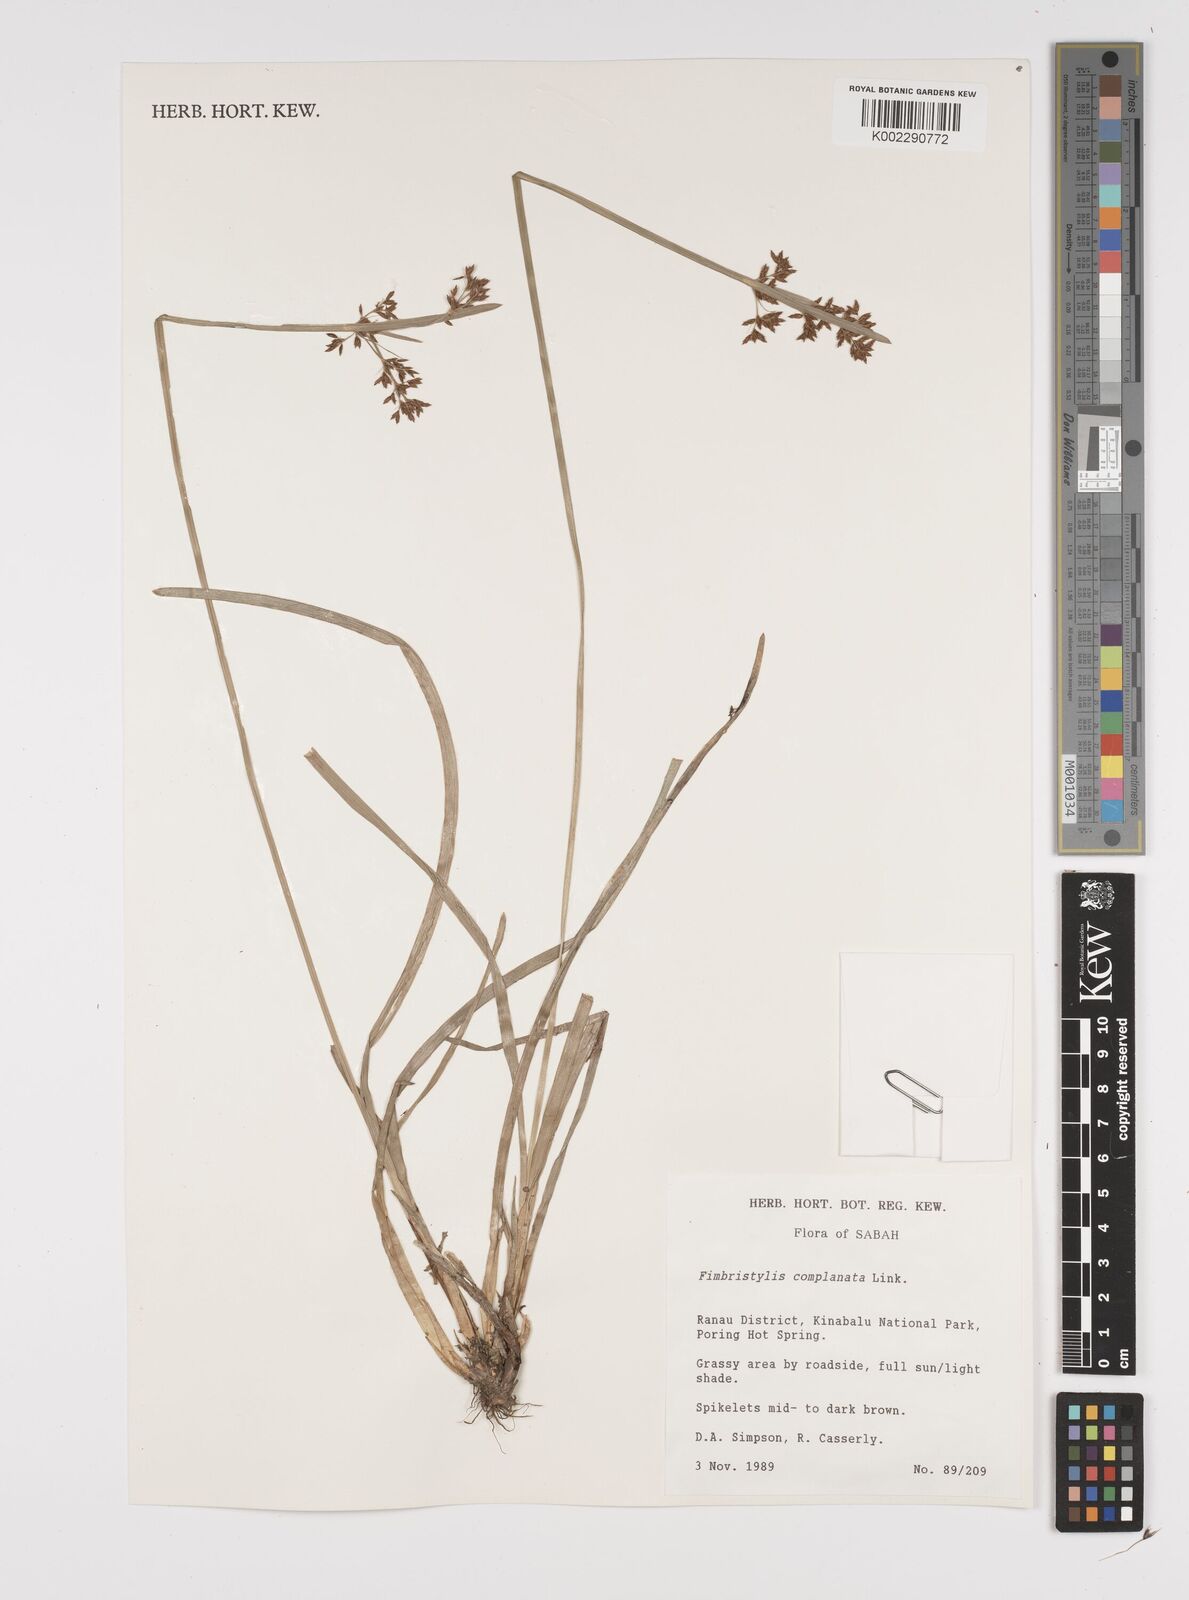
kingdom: Plantae
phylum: Tracheophyta
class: Liliopsida
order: Poales
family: Cyperaceae
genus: Fimbristylis
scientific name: Fimbristylis complanata
